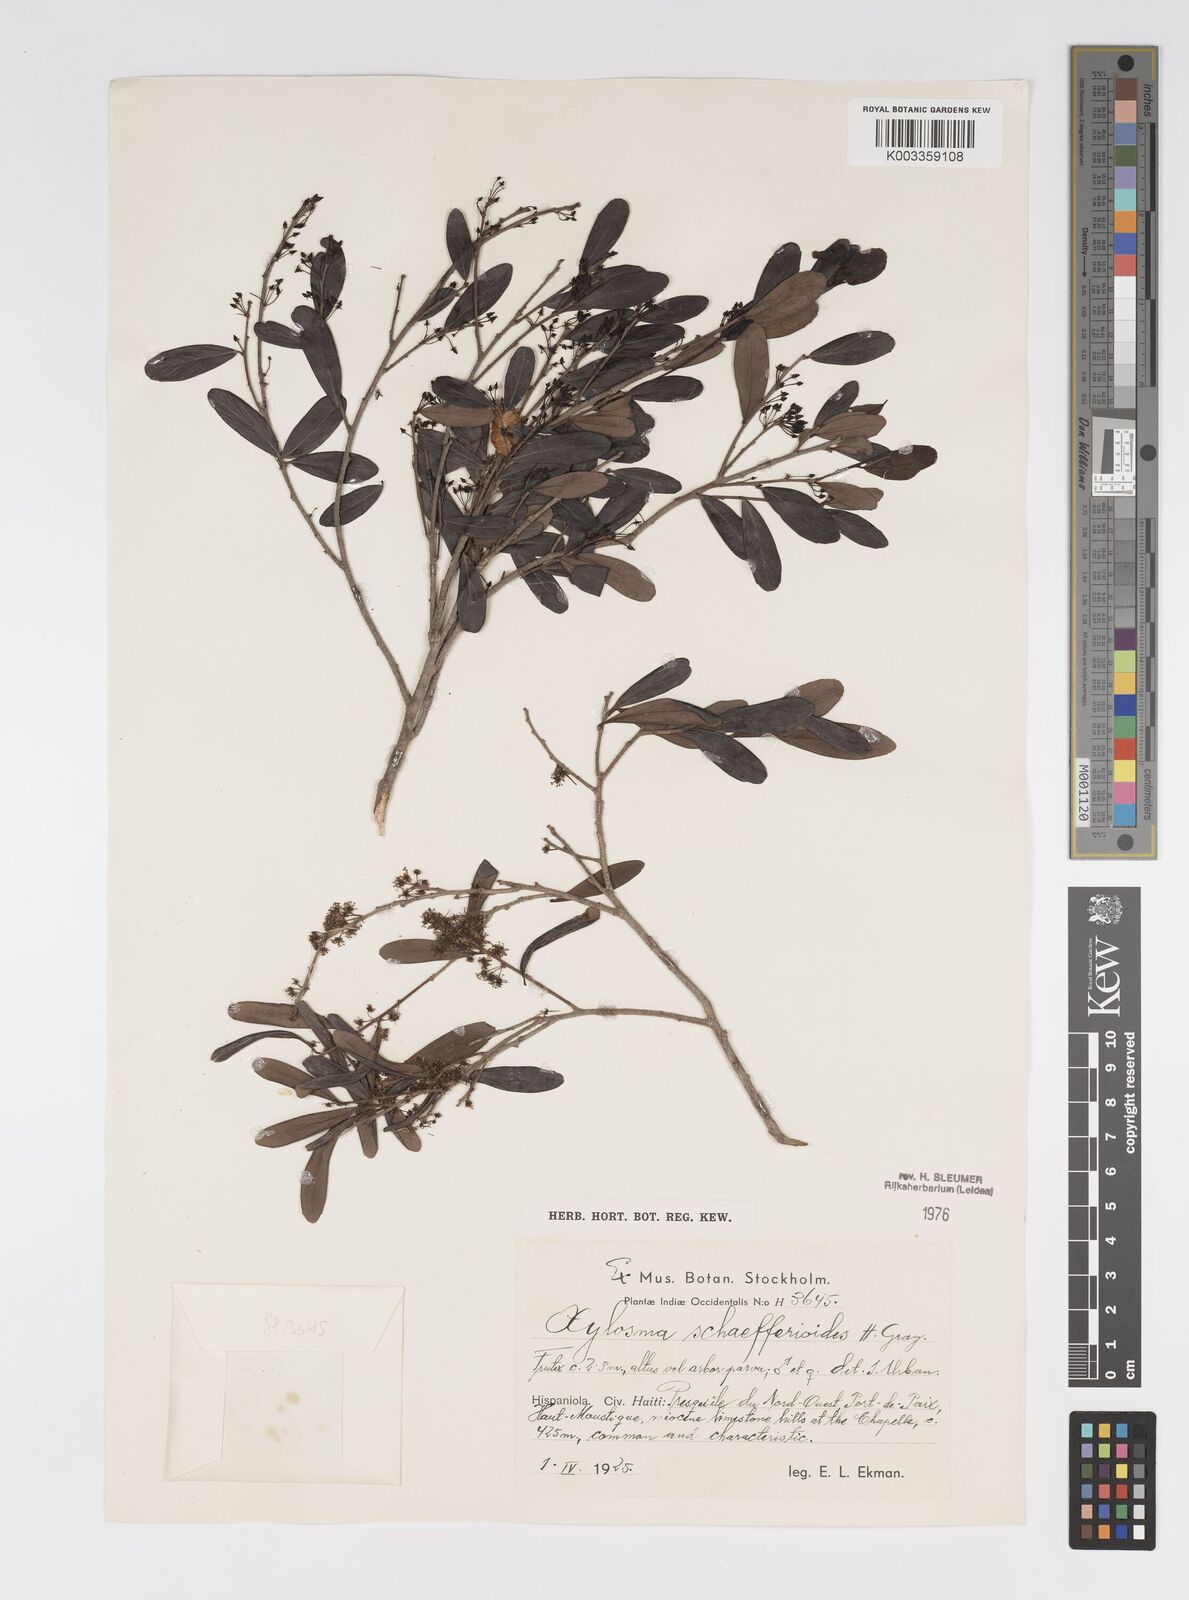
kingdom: Plantae
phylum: Tracheophyta
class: Magnoliopsida
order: Malpighiales
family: Salicaceae
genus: Xylosma
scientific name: Xylosma schaefferioides
